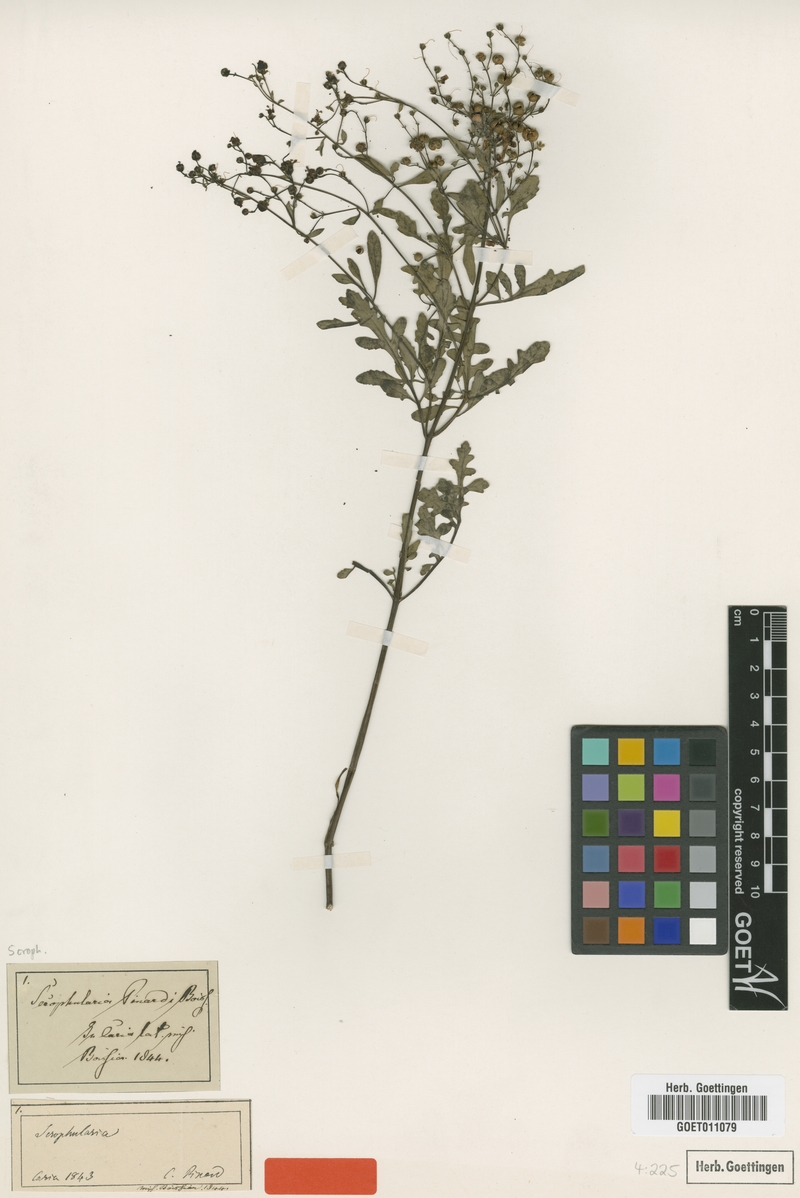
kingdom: Plantae
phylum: Tracheophyta
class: Magnoliopsida
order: Lamiales
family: Scrophulariaceae
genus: Scrophularia
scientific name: Scrophularia pinardii
